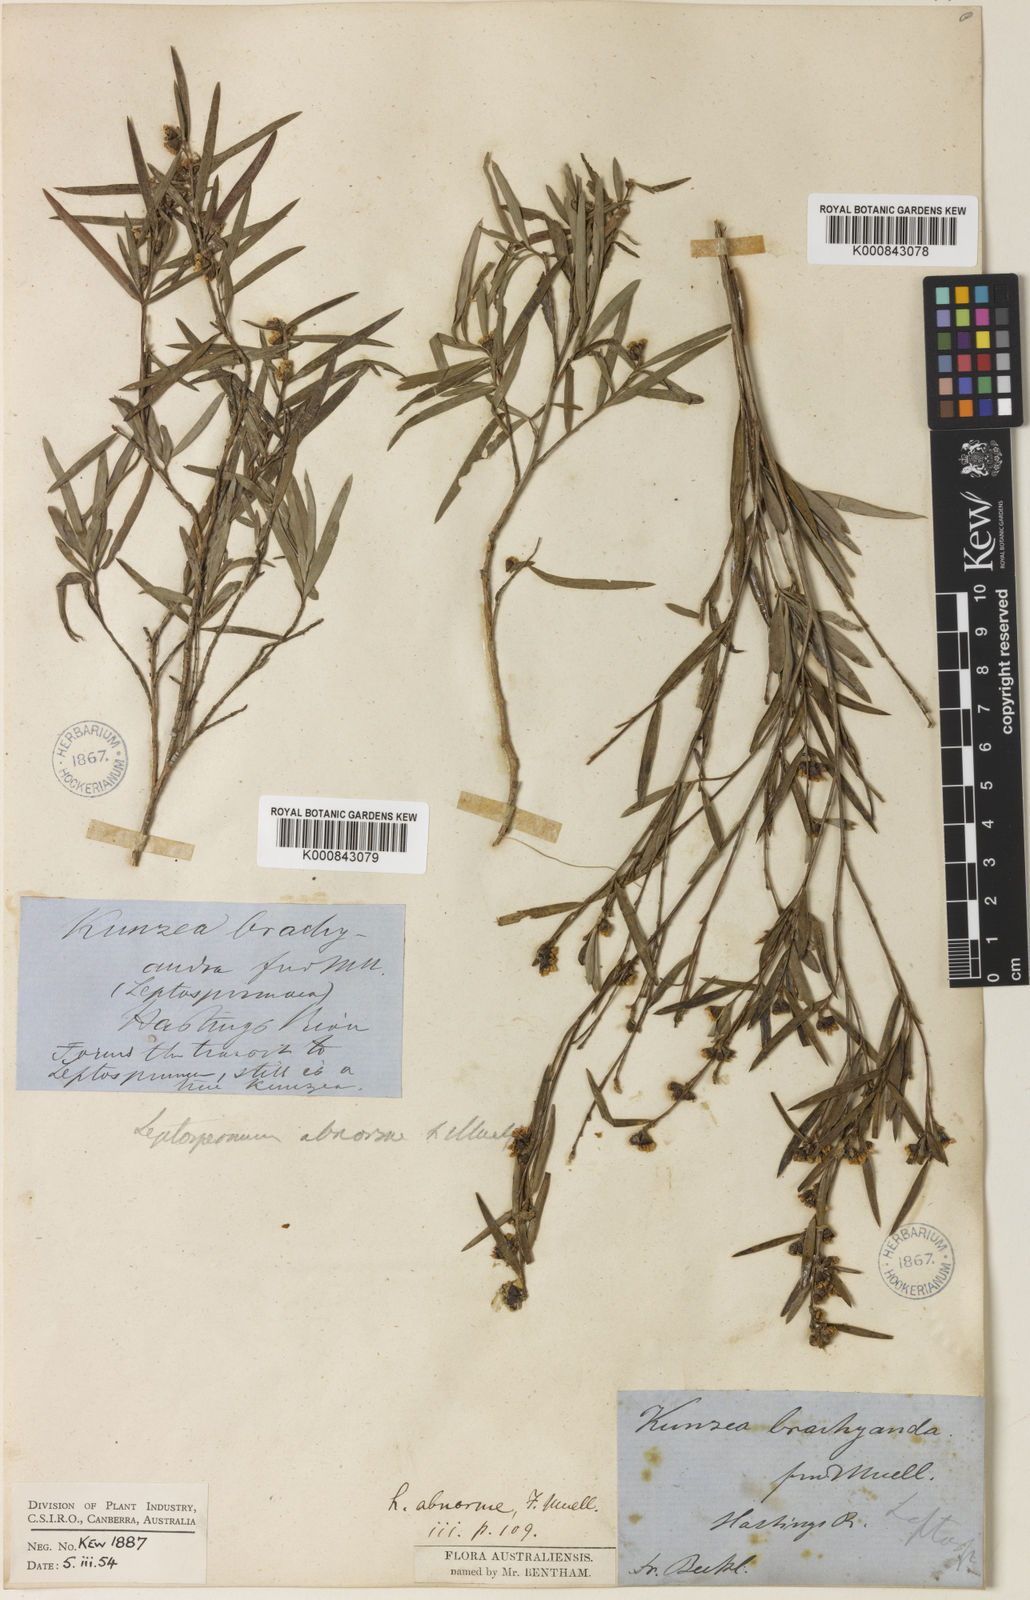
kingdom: Plantae
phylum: Tracheophyta
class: Magnoliopsida
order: Myrtales
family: Myrtaceae
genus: Leptospermum
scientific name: Leptospermum brachyandrum
